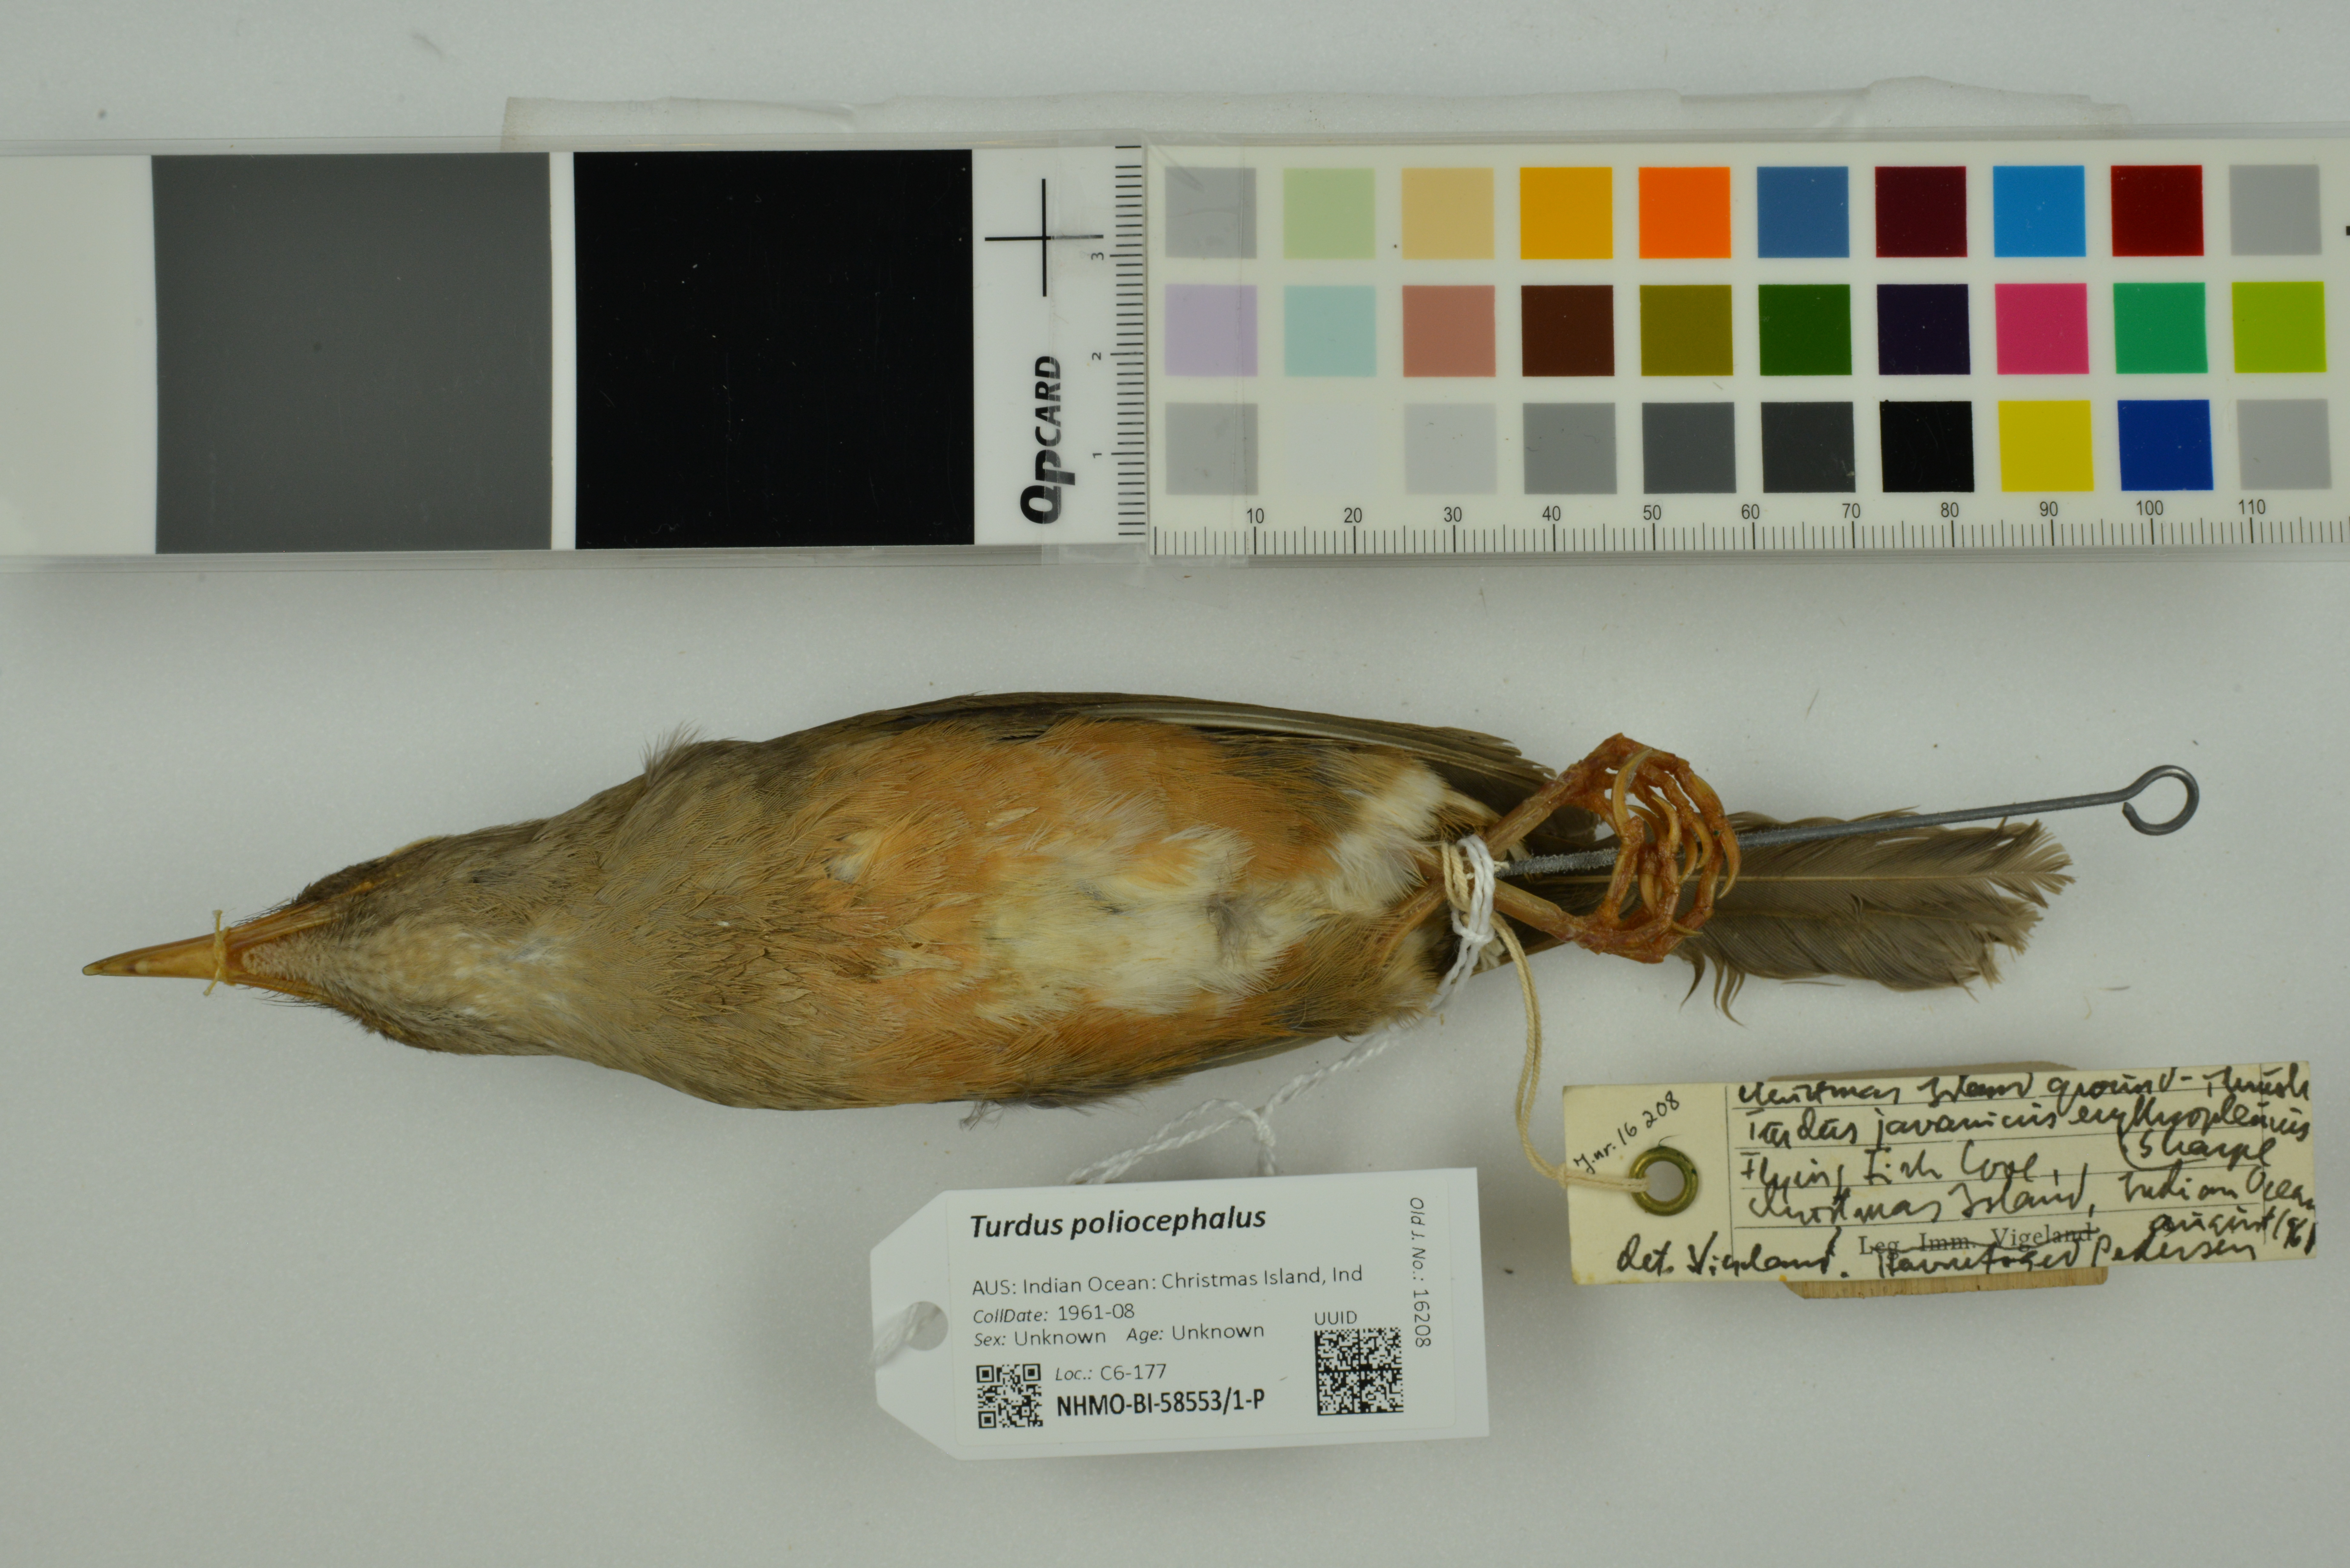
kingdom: Animalia
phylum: Chordata
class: Aves
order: Passeriformes
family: Turdidae
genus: Turdus
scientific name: Turdus poliocephalus
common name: Island thrush
